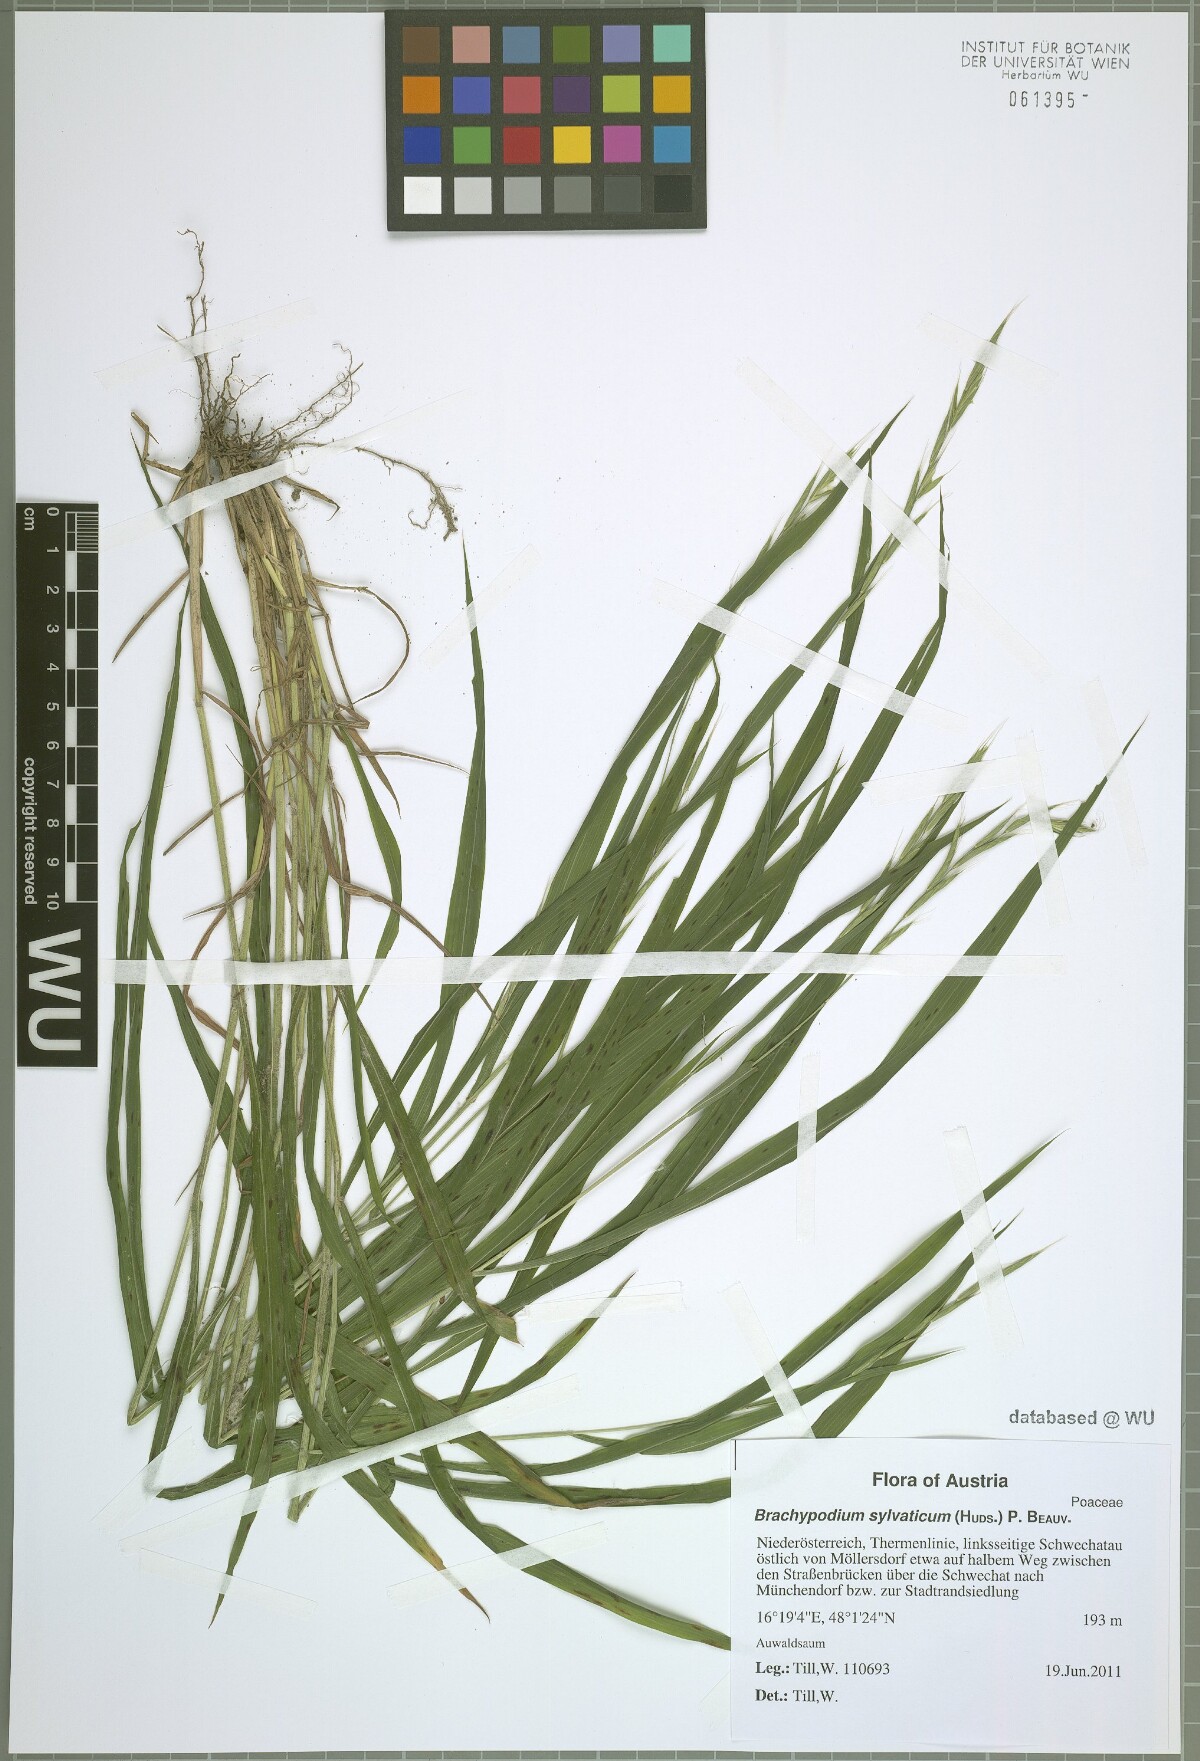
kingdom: Plantae
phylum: Tracheophyta
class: Liliopsida
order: Poales
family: Poaceae
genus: Brachypodium
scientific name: Brachypodium sylvaticum
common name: False-brome
